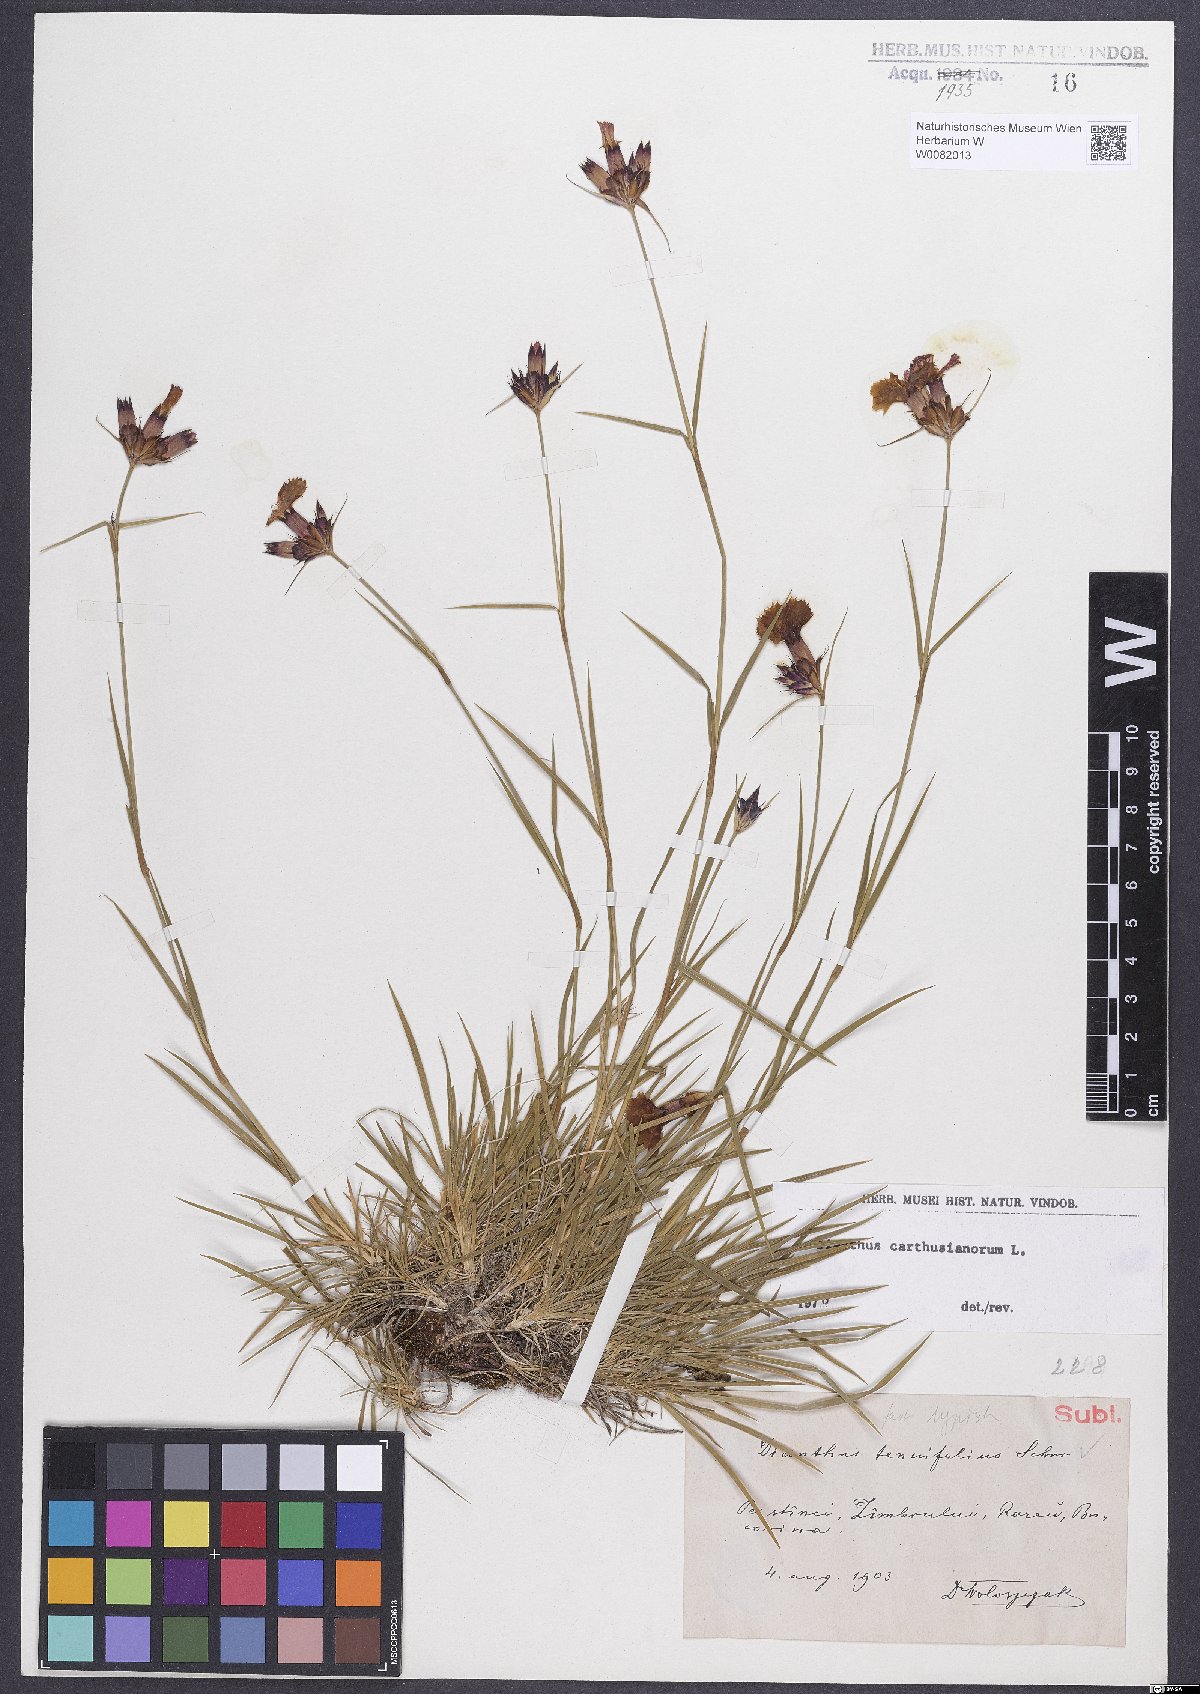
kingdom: Plantae
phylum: Tracheophyta
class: Magnoliopsida
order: Caryophyllales
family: Caryophyllaceae
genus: Dianthus
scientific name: Dianthus carthusianorum
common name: Carthusian pink
